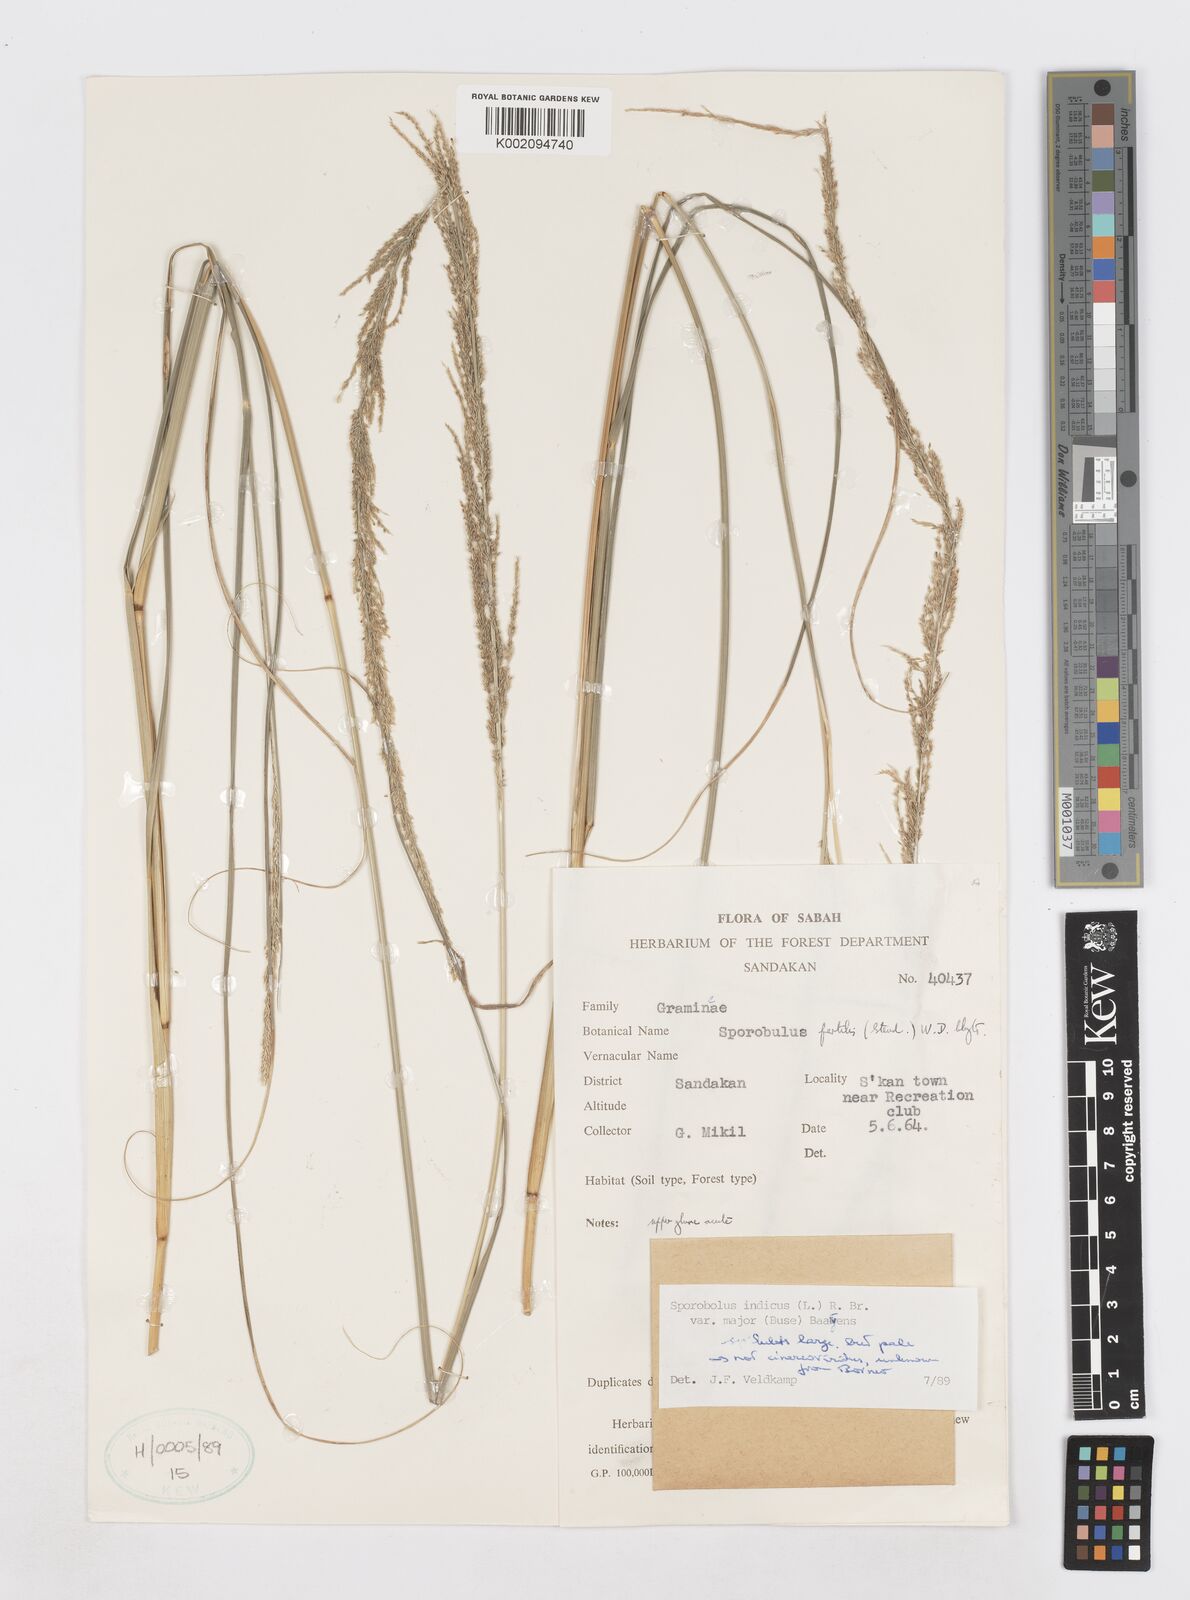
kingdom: Plantae
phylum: Tracheophyta
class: Liliopsida
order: Poales
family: Poaceae
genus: Sporobolus
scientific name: Sporobolus fertilis
